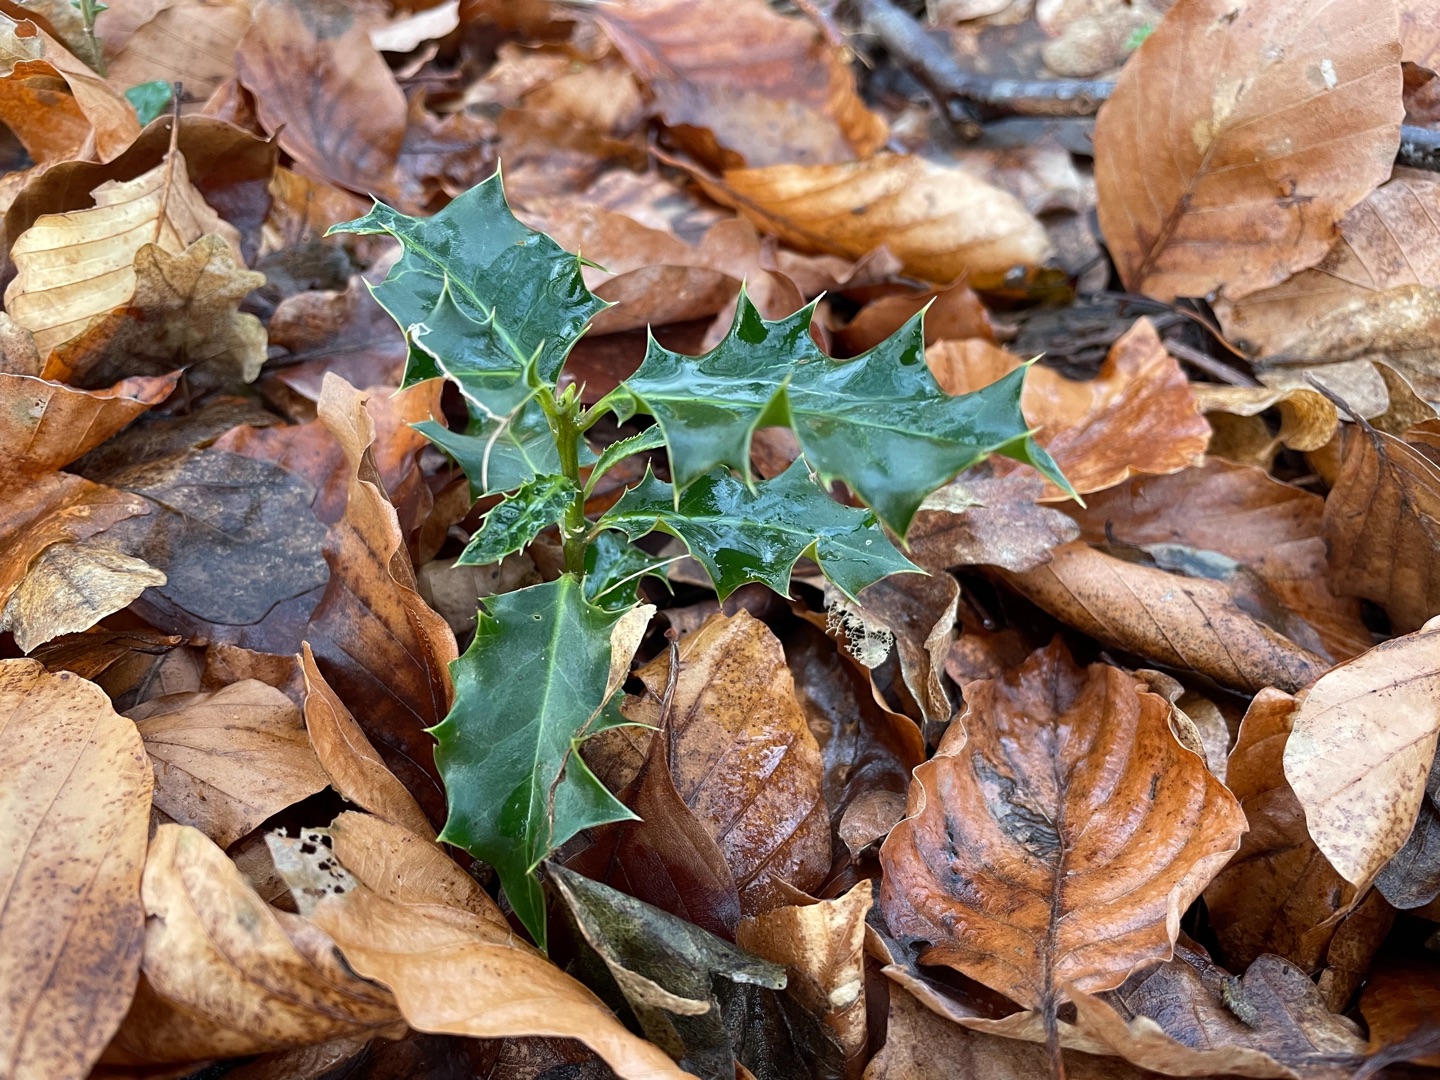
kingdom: Plantae
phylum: Tracheophyta
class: Magnoliopsida
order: Aquifoliales
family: Aquifoliaceae
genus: Ilex
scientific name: Ilex aquifolium
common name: Kristtorn
